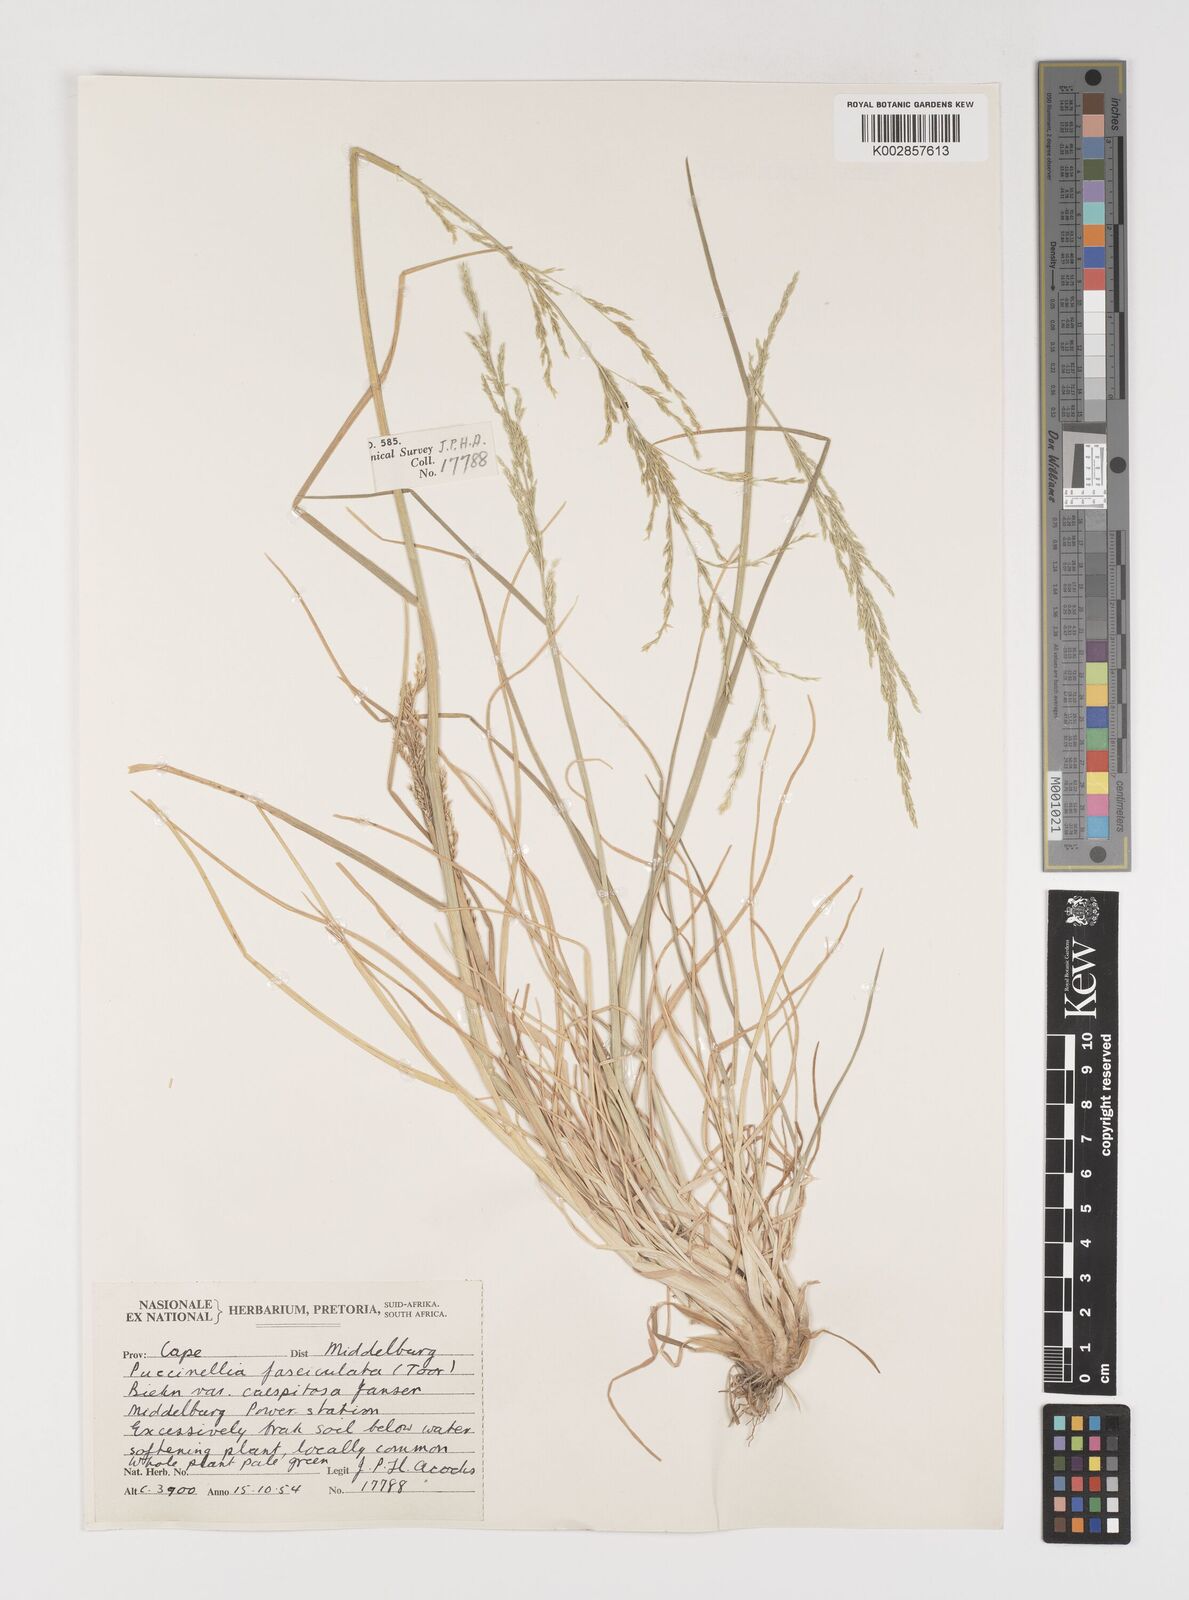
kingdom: Plantae
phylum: Tracheophyta
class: Liliopsida
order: Poales
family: Poaceae
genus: Puccinellia
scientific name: Puccinellia fasciculata
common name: Borrer's saltmarsh-grass
